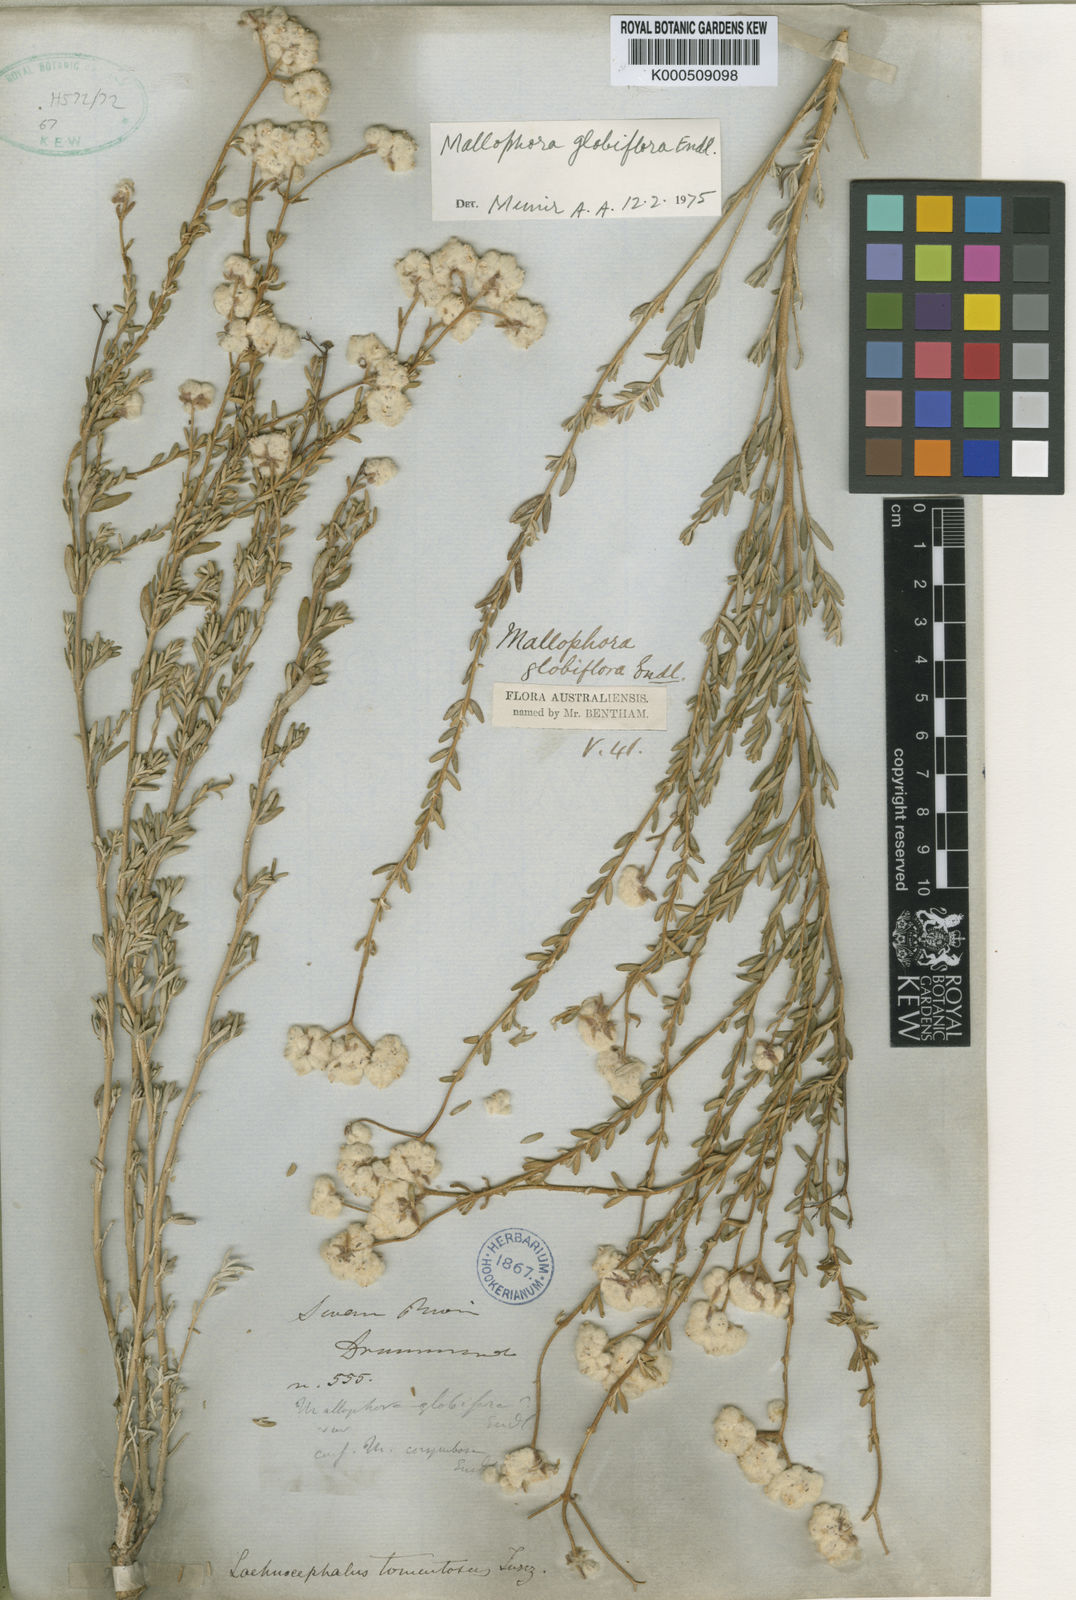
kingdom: Plantae
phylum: Tracheophyta
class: Magnoliopsida
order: Lamiales
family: Lamiaceae
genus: Dicrastylis
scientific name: Dicrastylis globiflora
